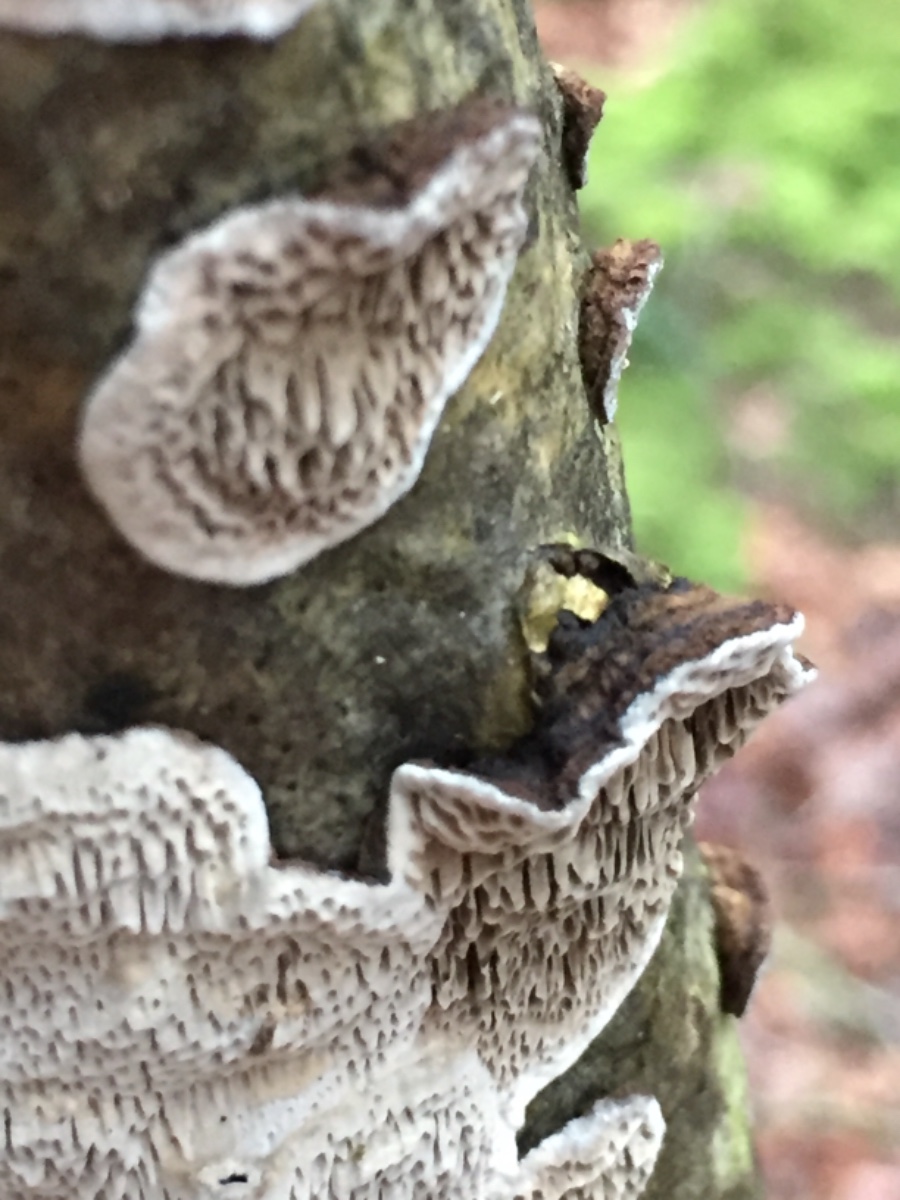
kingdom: Fungi
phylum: Basidiomycota
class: Agaricomycetes
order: Polyporales
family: Polyporaceae
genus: Podofomes
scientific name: Podofomes mollis
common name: blød begporesvamp
